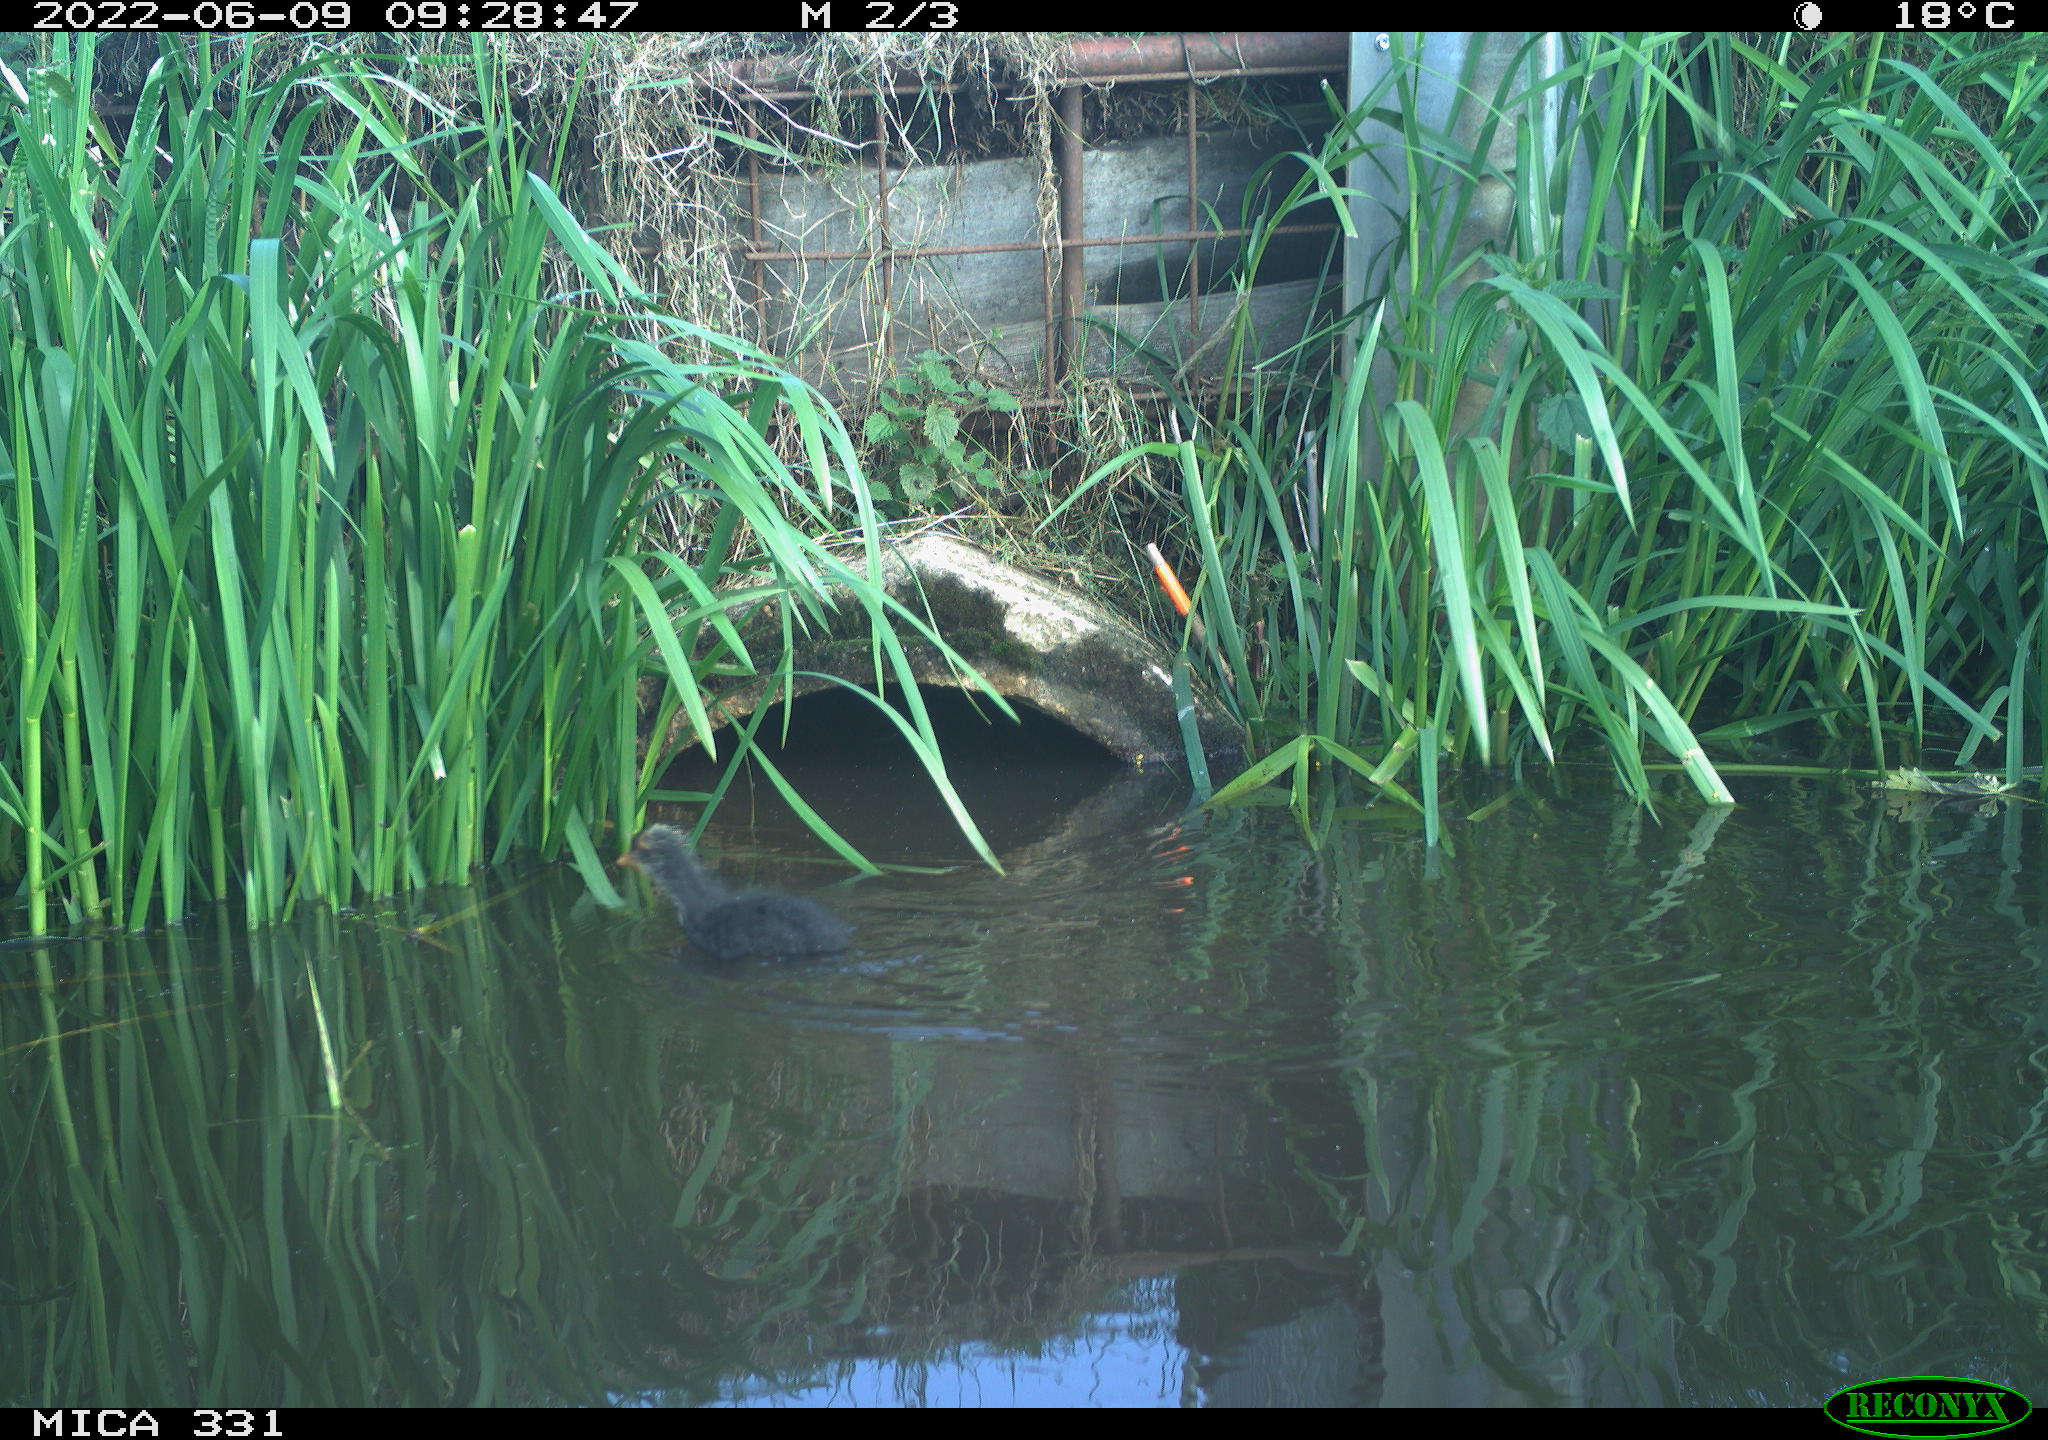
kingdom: Animalia
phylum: Chordata
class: Aves
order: Gruiformes
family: Rallidae
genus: Gallinula
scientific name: Gallinula chloropus
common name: Common moorhen
